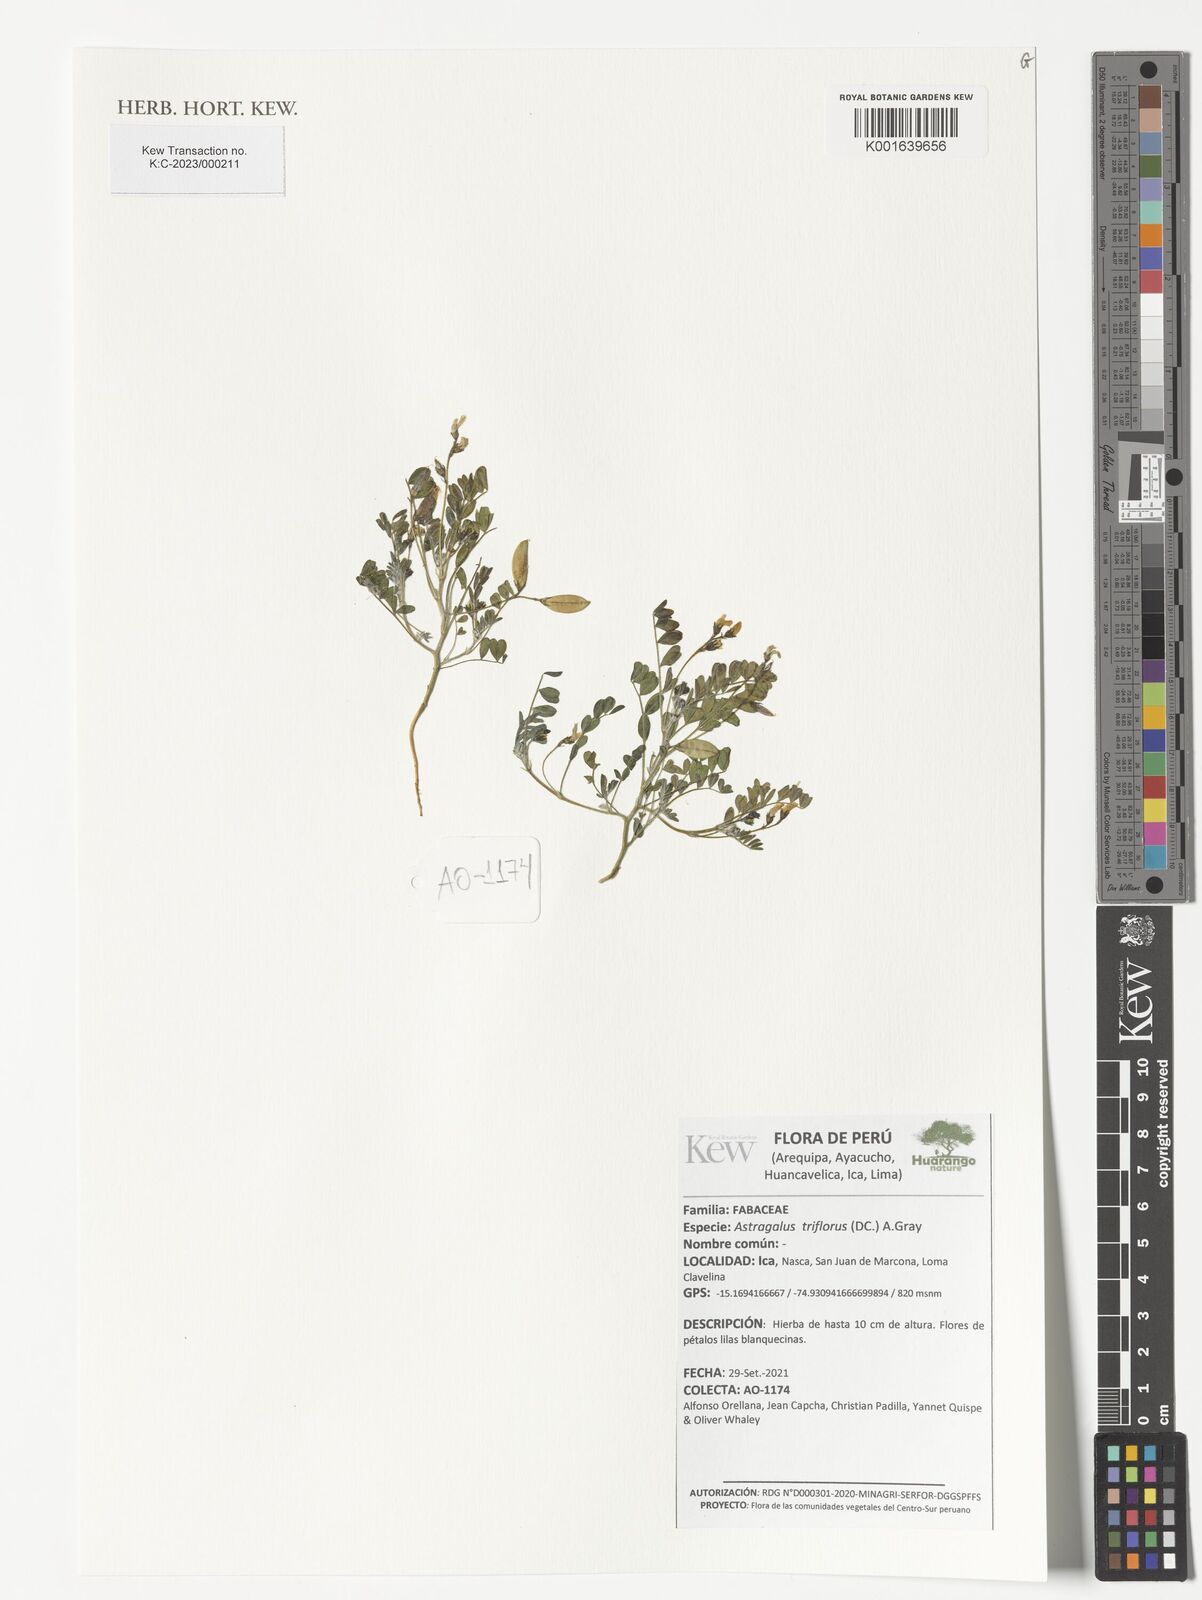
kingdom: Plantae
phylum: Tracheophyta
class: Magnoliopsida
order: Fabales
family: Fabaceae
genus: Astragalus
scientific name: Astragalus triflorus
